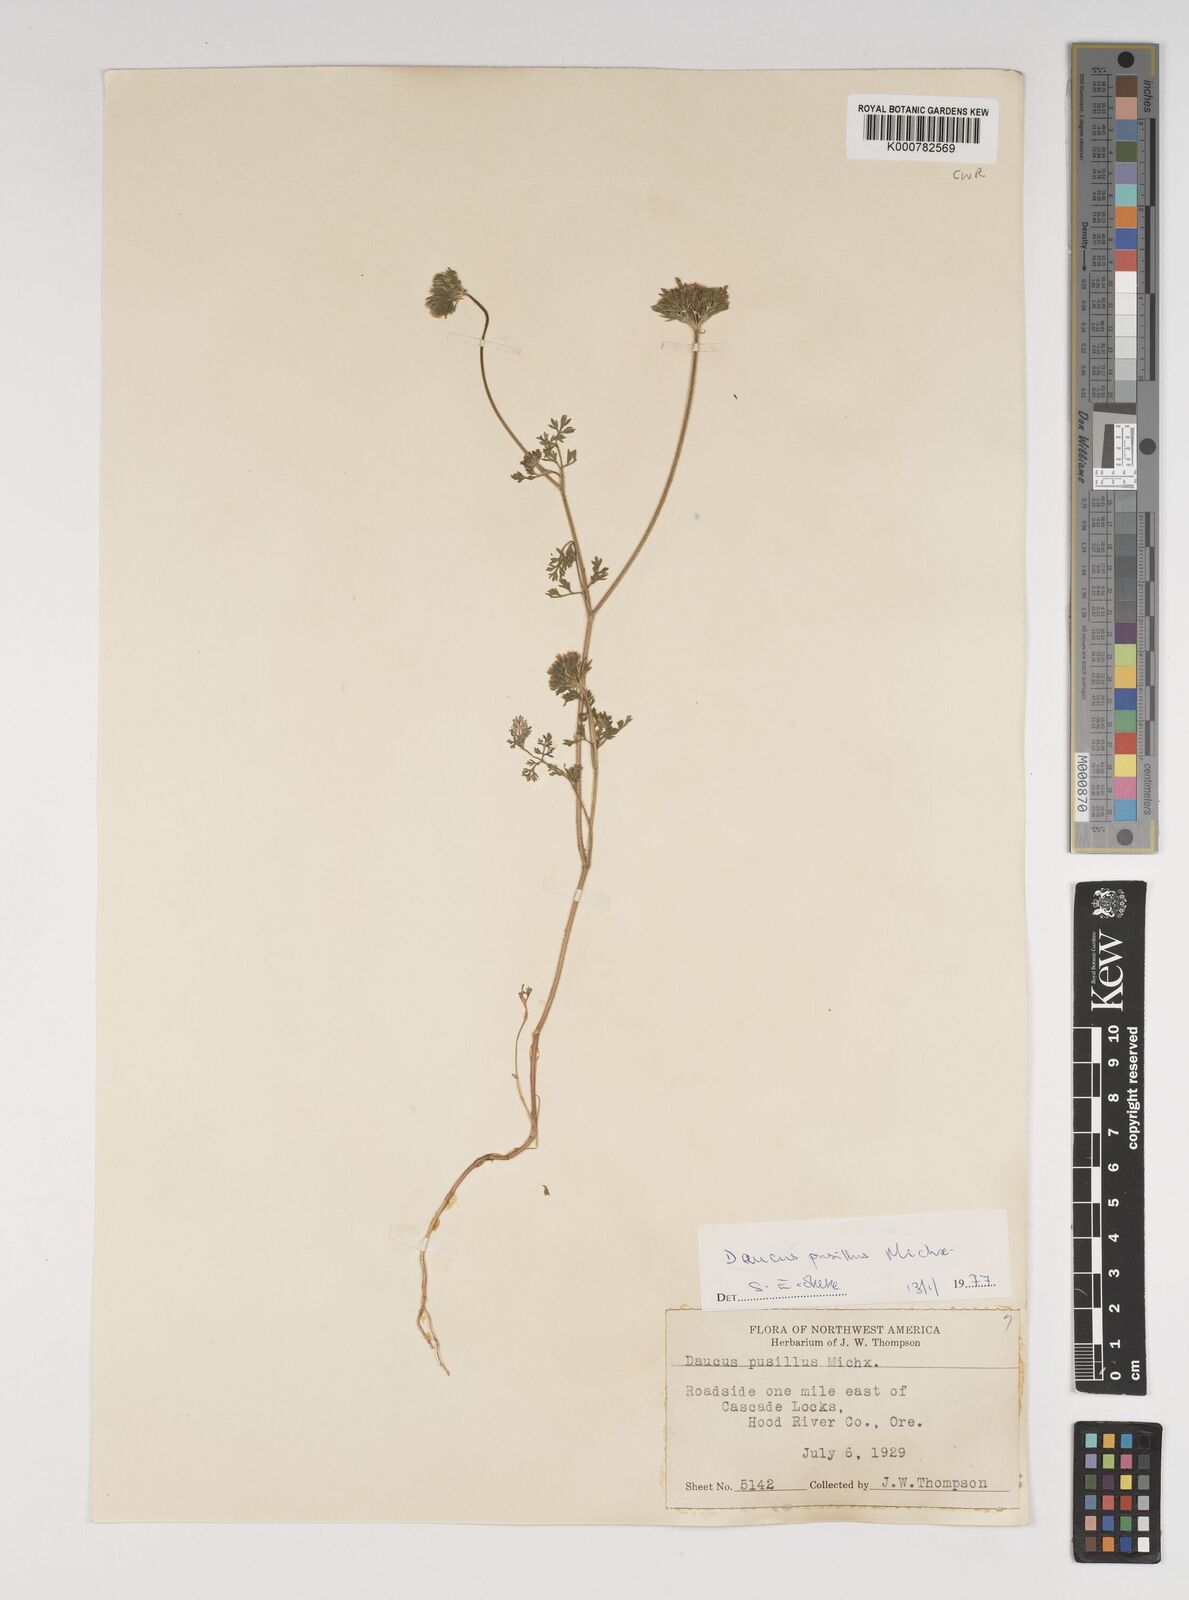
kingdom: Plantae
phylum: Tracheophyta
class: Magnoliopsida
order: Apiales
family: Apiaceae
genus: Daucus
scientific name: Daucus pusillus
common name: Southwest wild carrot
